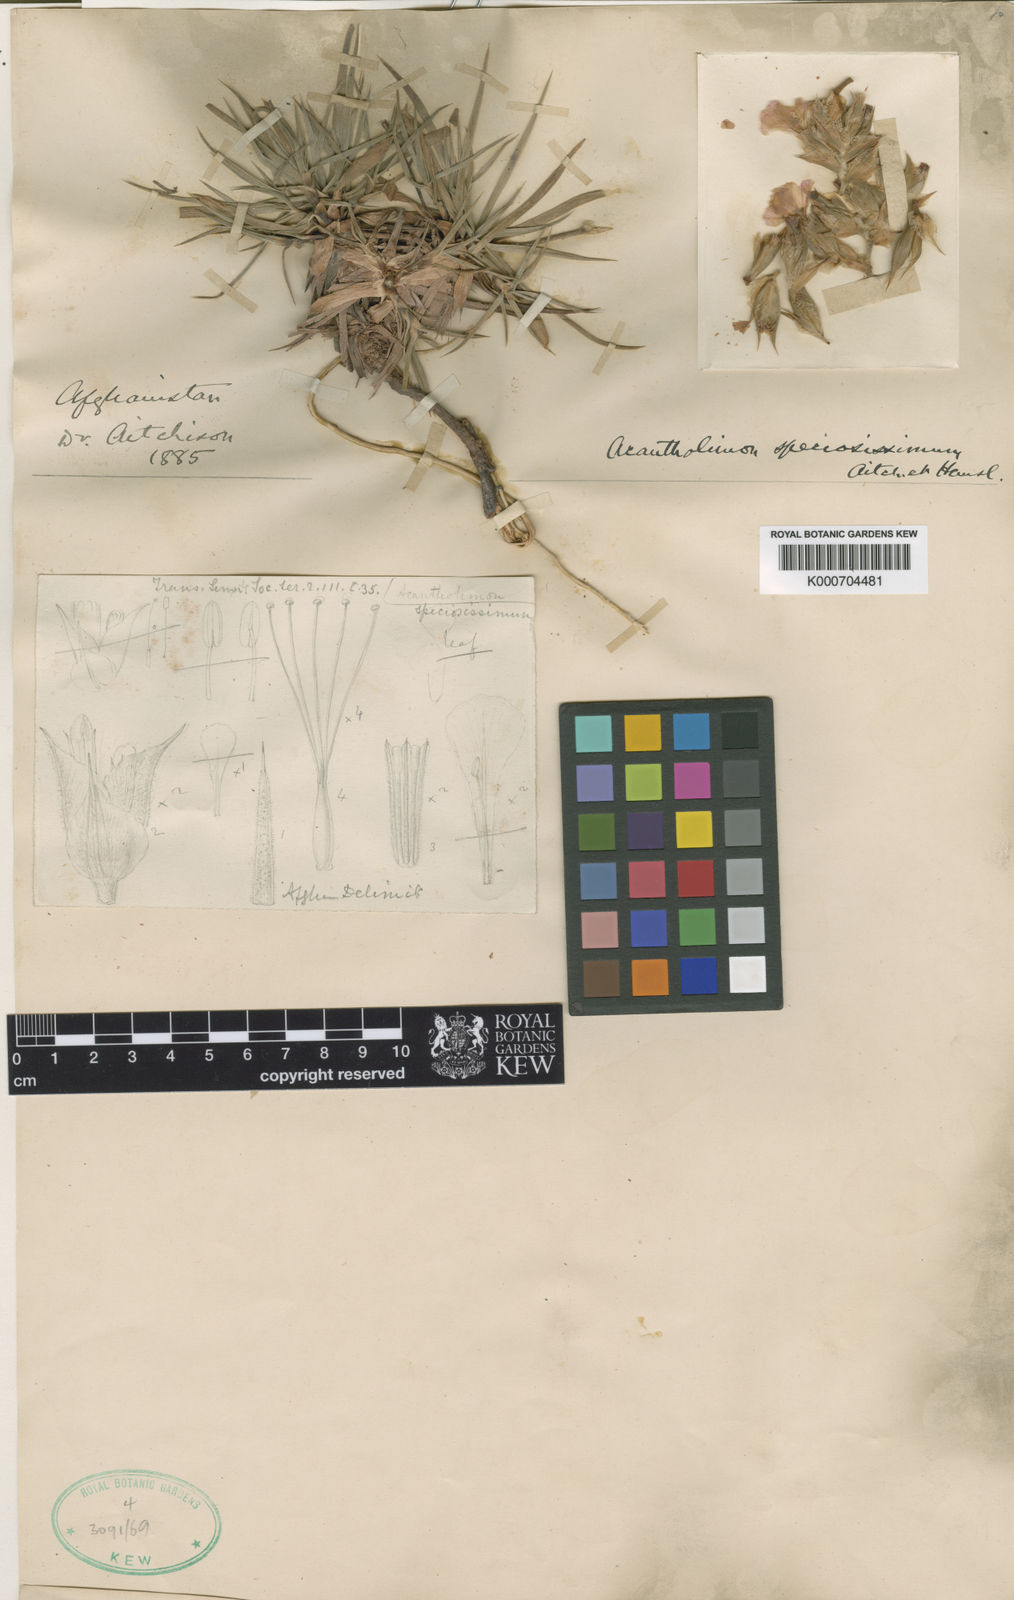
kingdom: Plantae
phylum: Tracheophyta
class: Magnoliopsida
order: Caryophyllales
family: Plumbaginaceae
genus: Acantholimon
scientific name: Acantholimon speciosissimum
